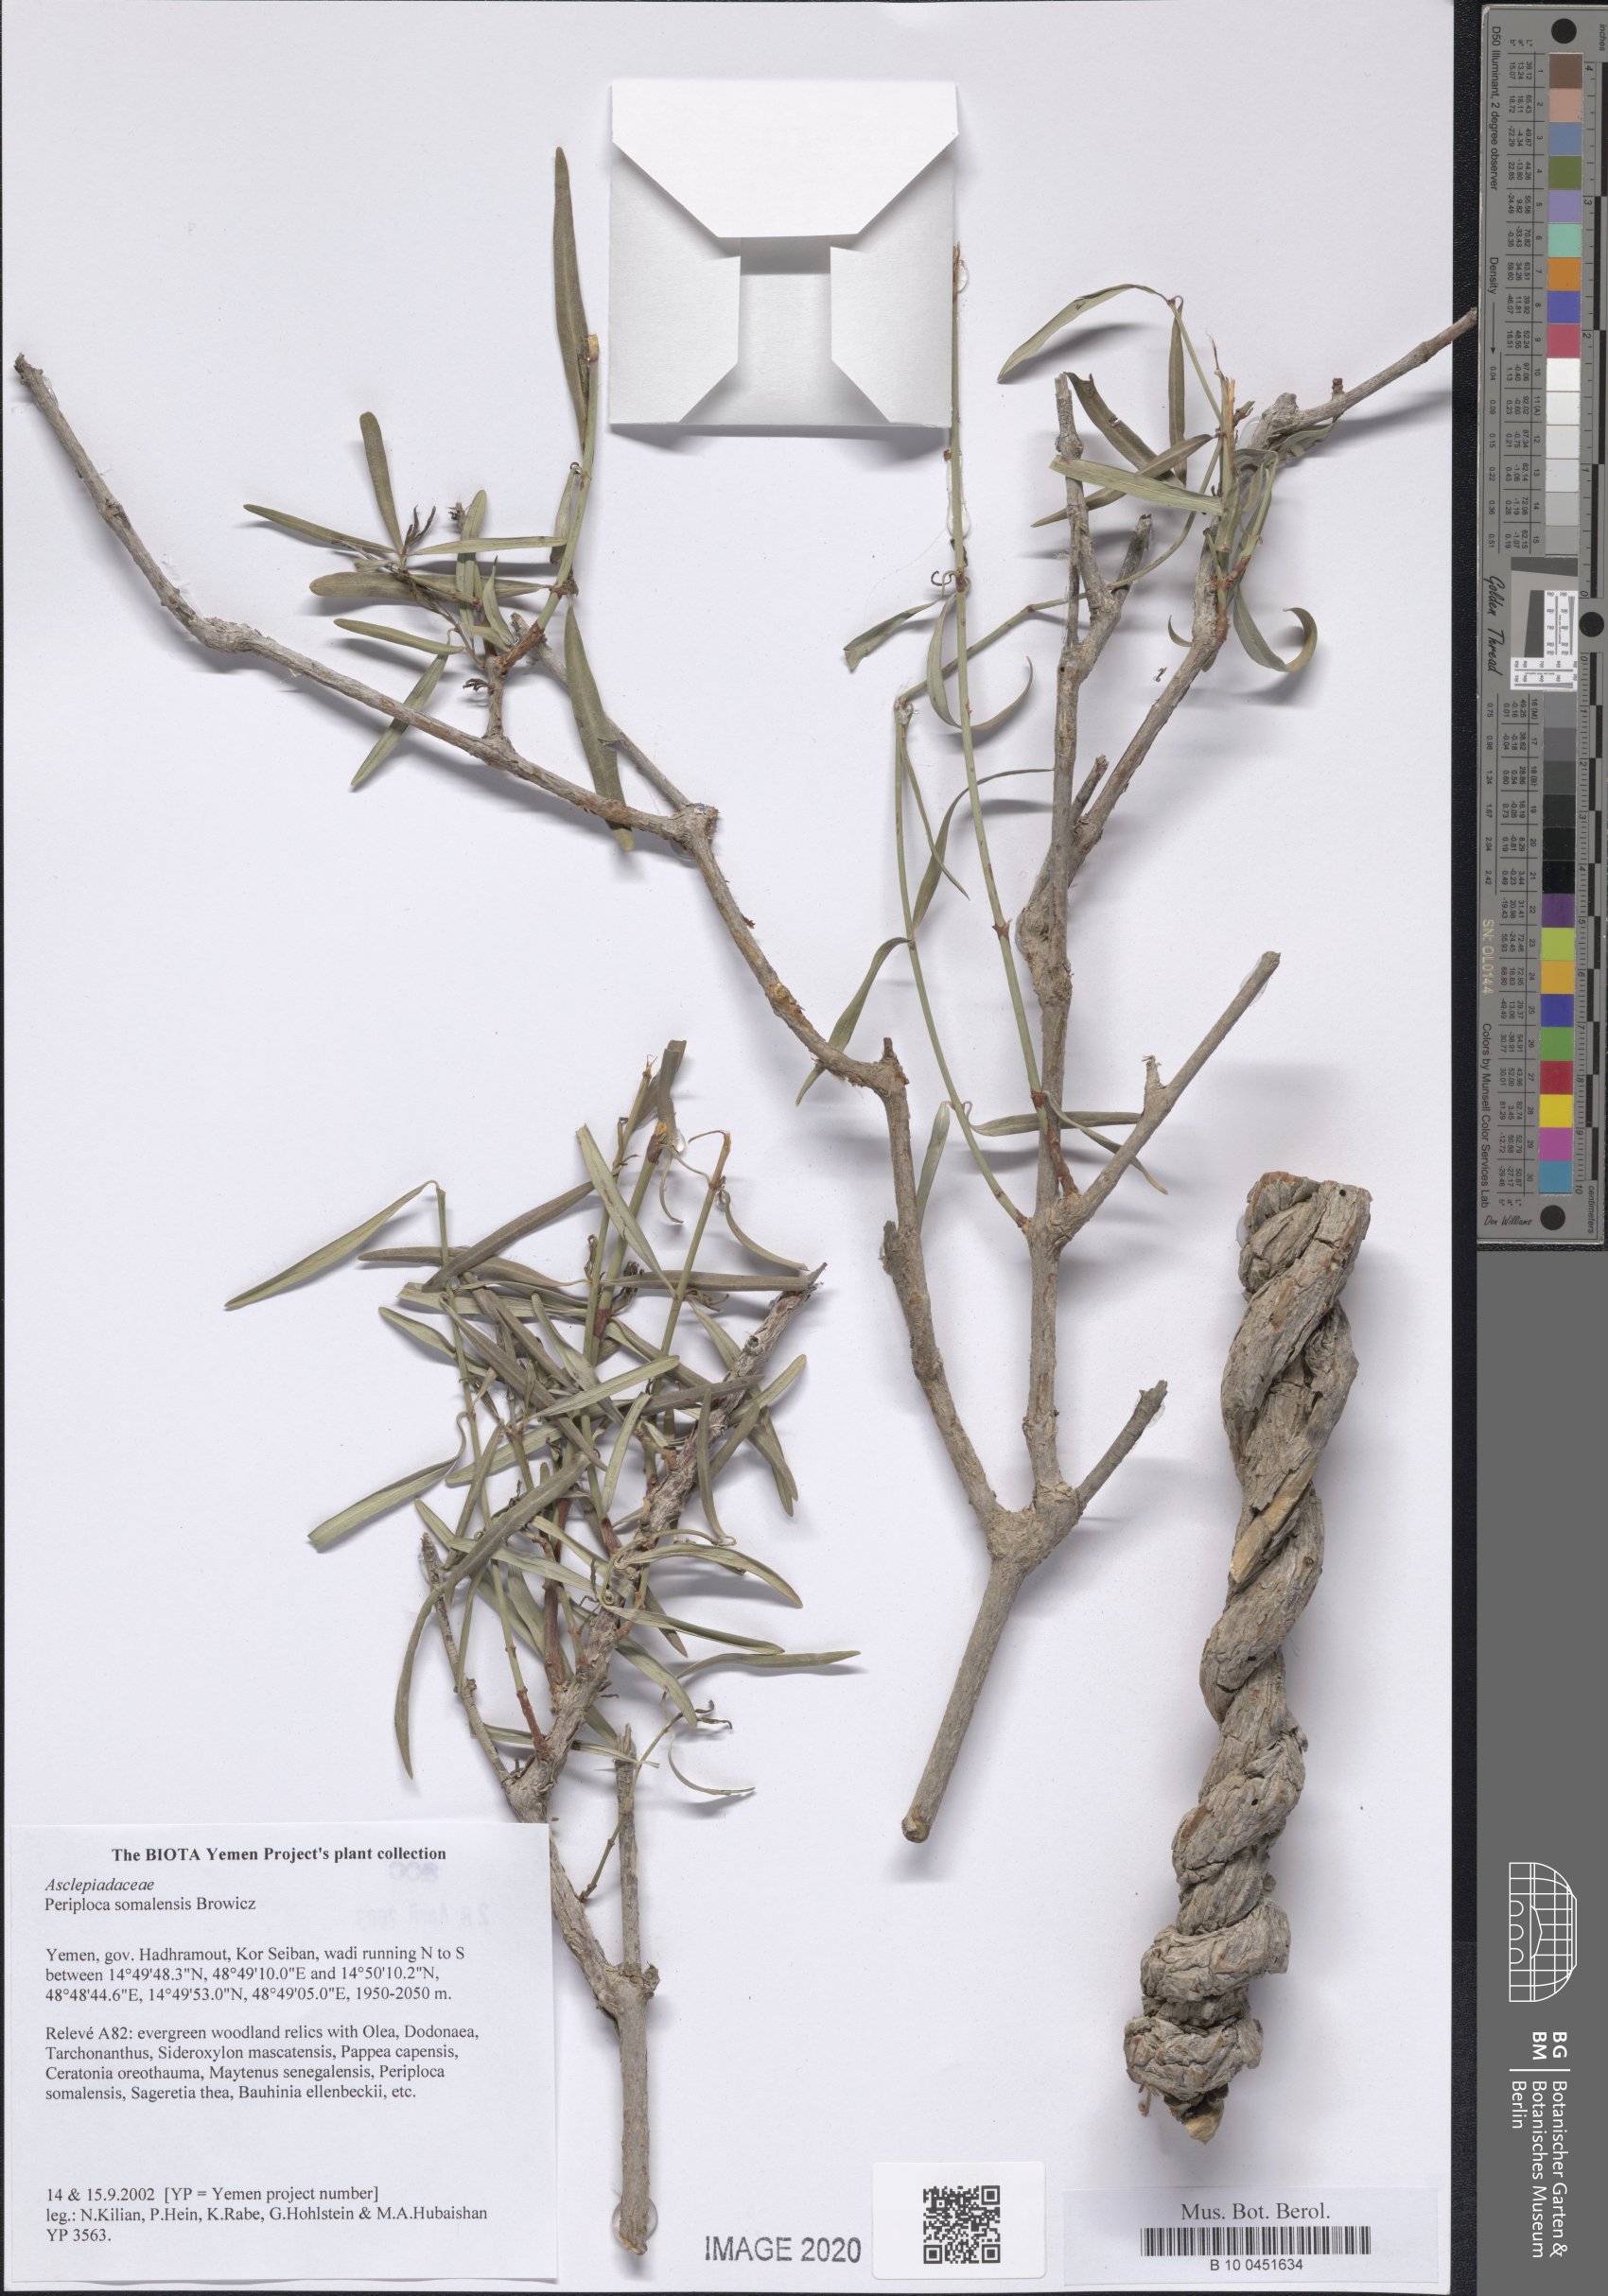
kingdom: Plantae
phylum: Tracheophyta
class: Magnoliopsida
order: Gentianales
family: Apocynaceae
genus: Periploca
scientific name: Periploca somaliensis
